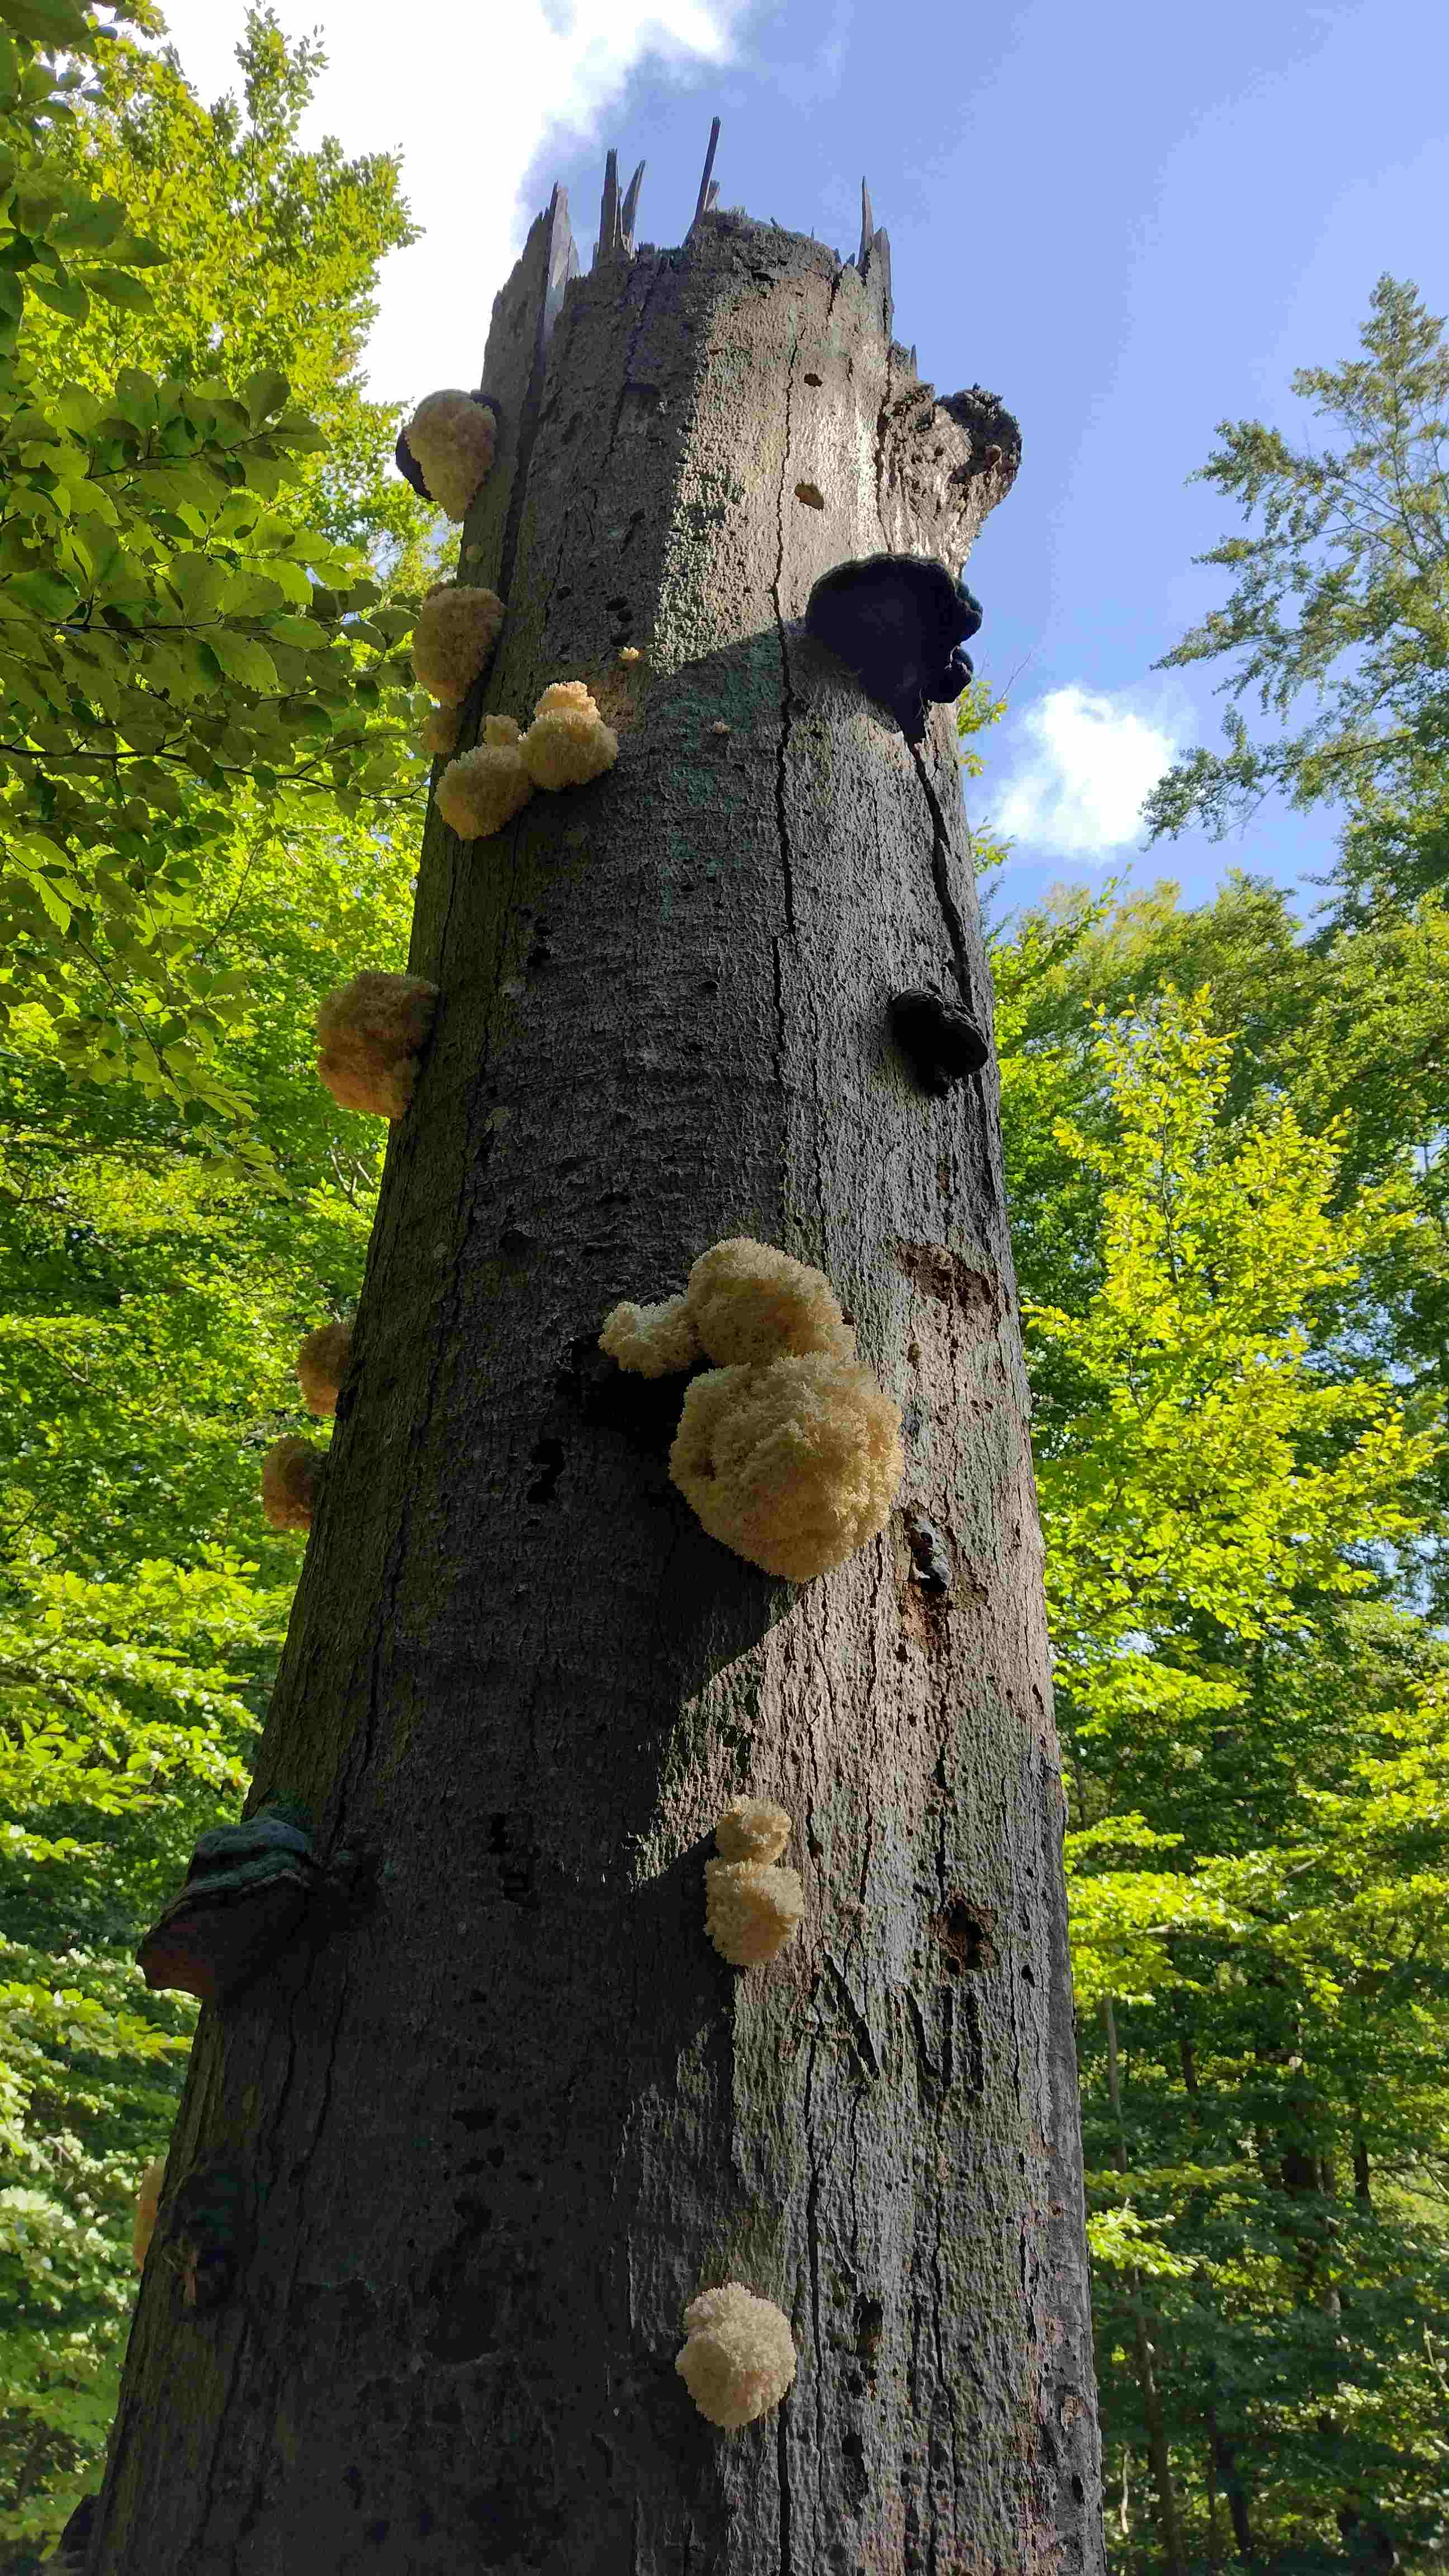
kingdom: Fungi
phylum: Basidiomycota
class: Agaricomycetes
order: Russulales
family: Hericiaceae
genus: Hericium
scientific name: Hericium coralloides
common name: koralpigsvamp
